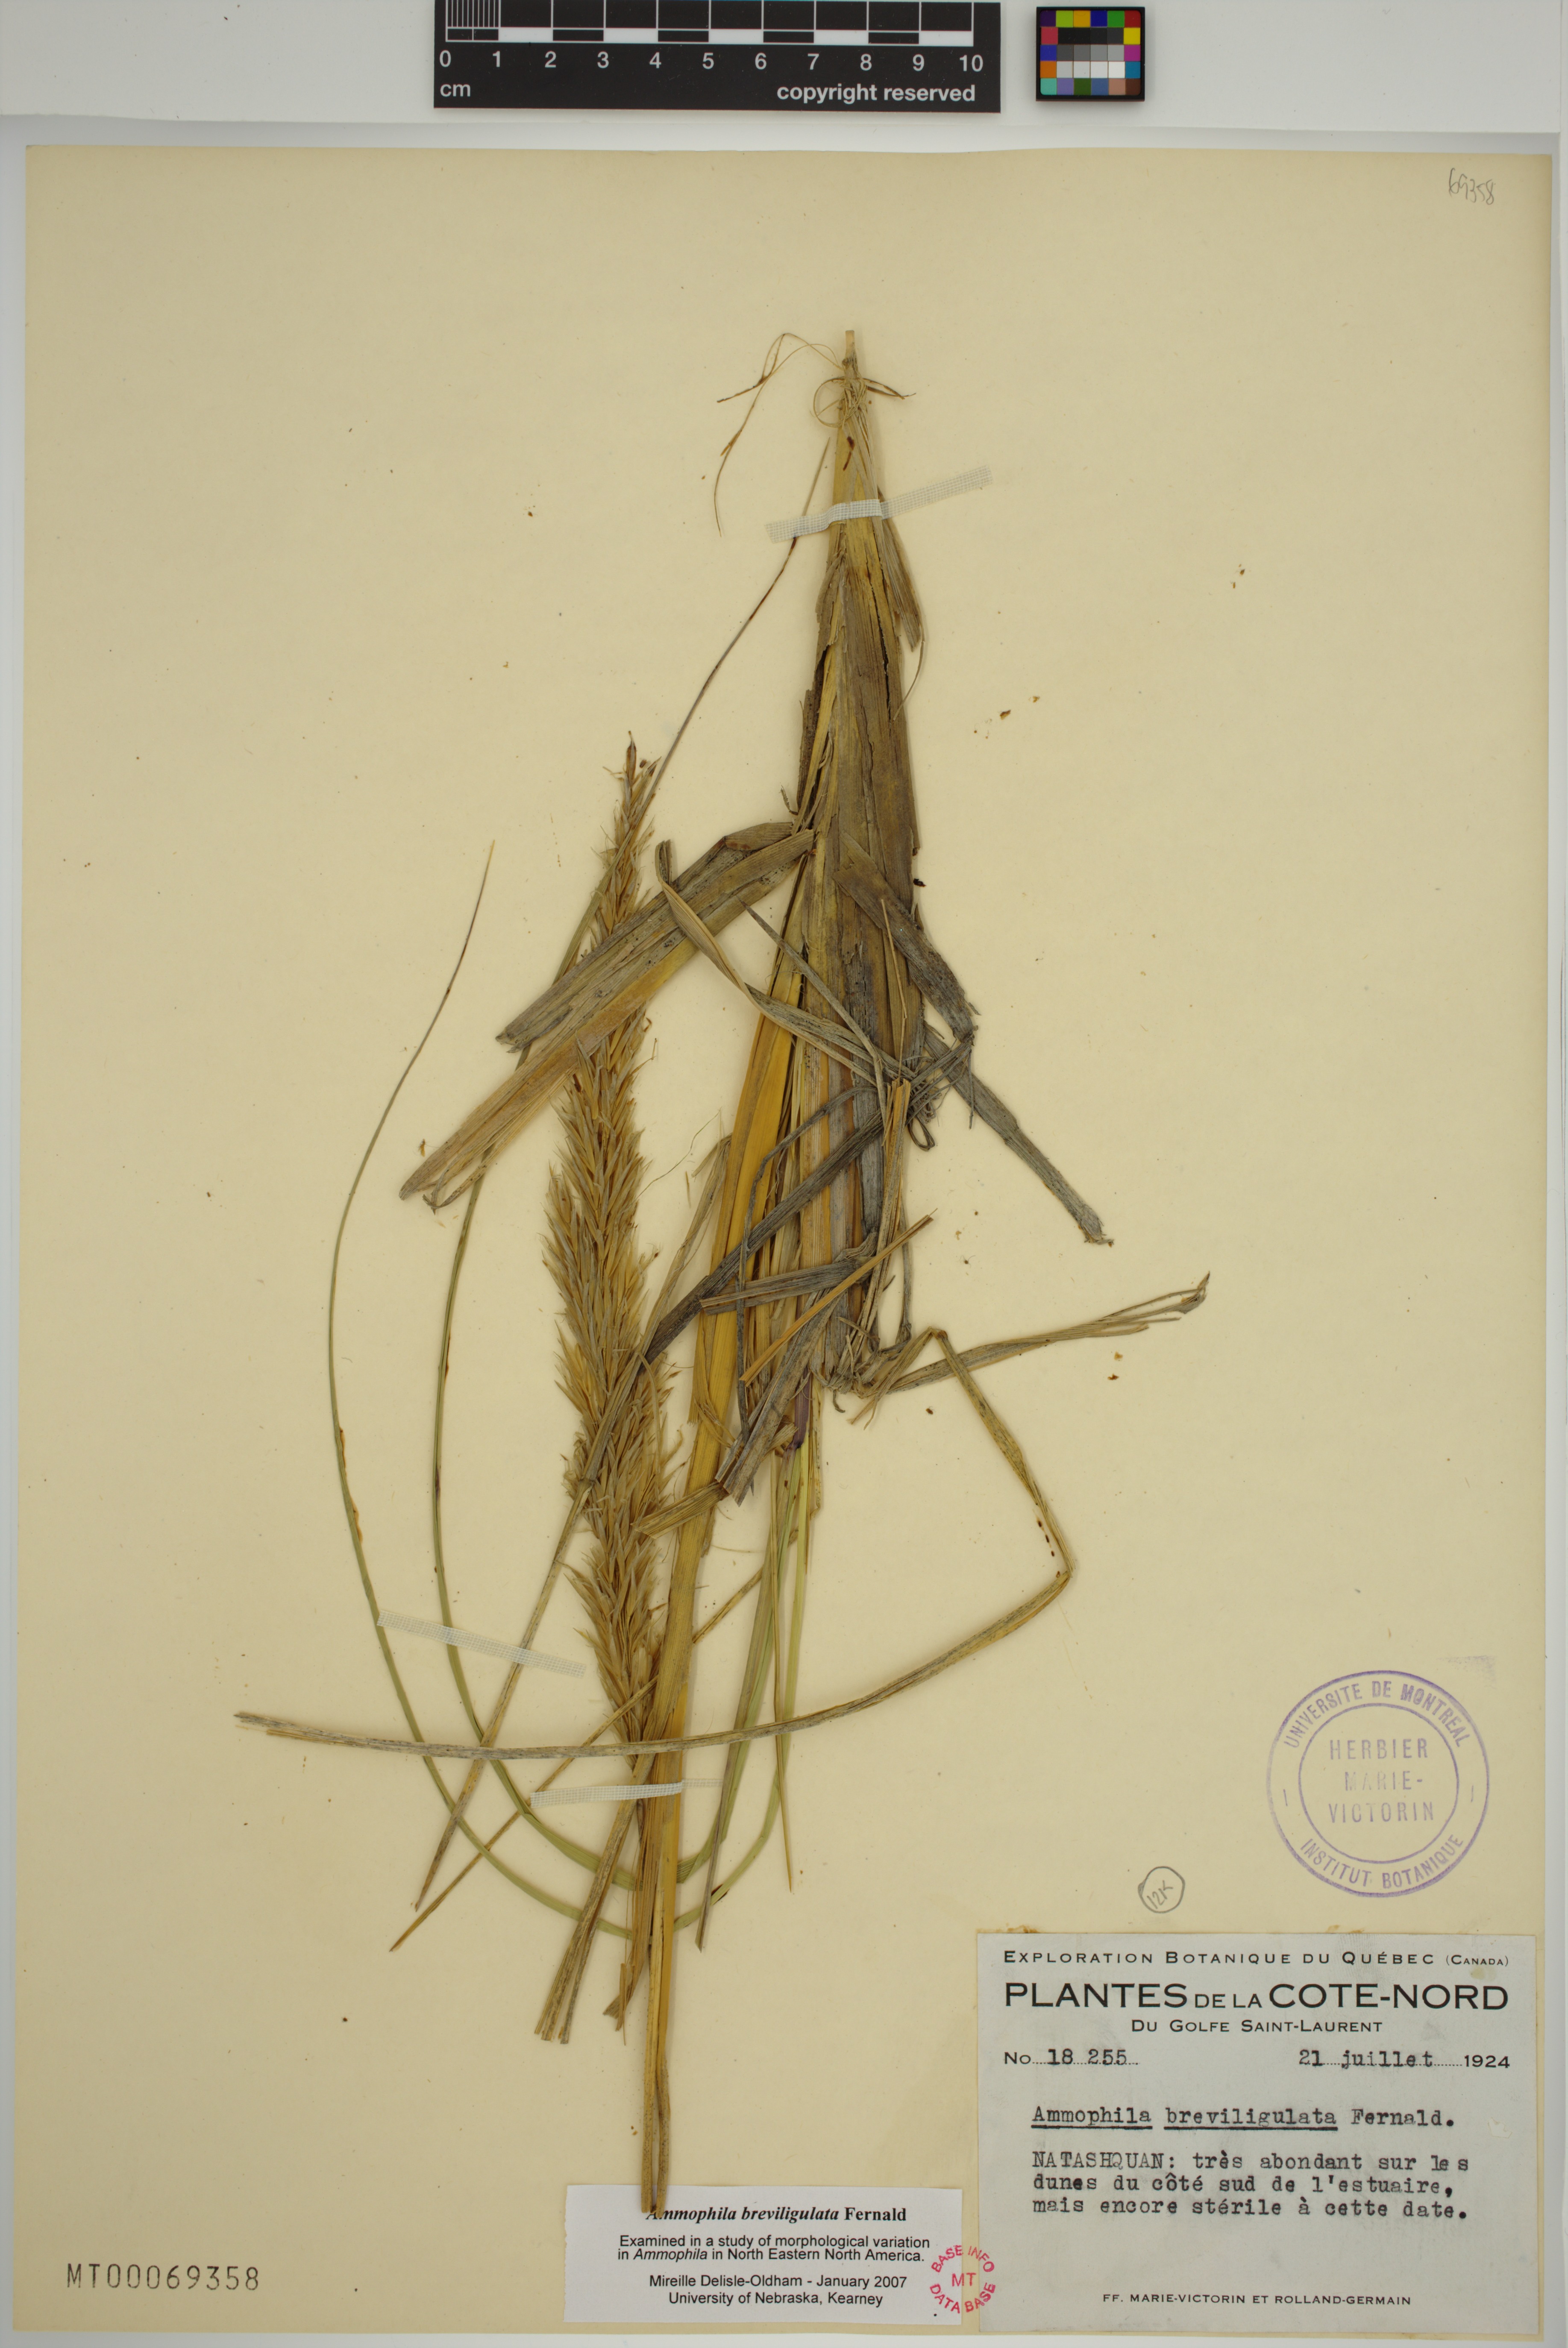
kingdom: Plantae
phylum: Tracheophyta
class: Liliopsida
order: Poales
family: Poaceae
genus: Calamagrostis
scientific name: Calamagrostis breviligulata
